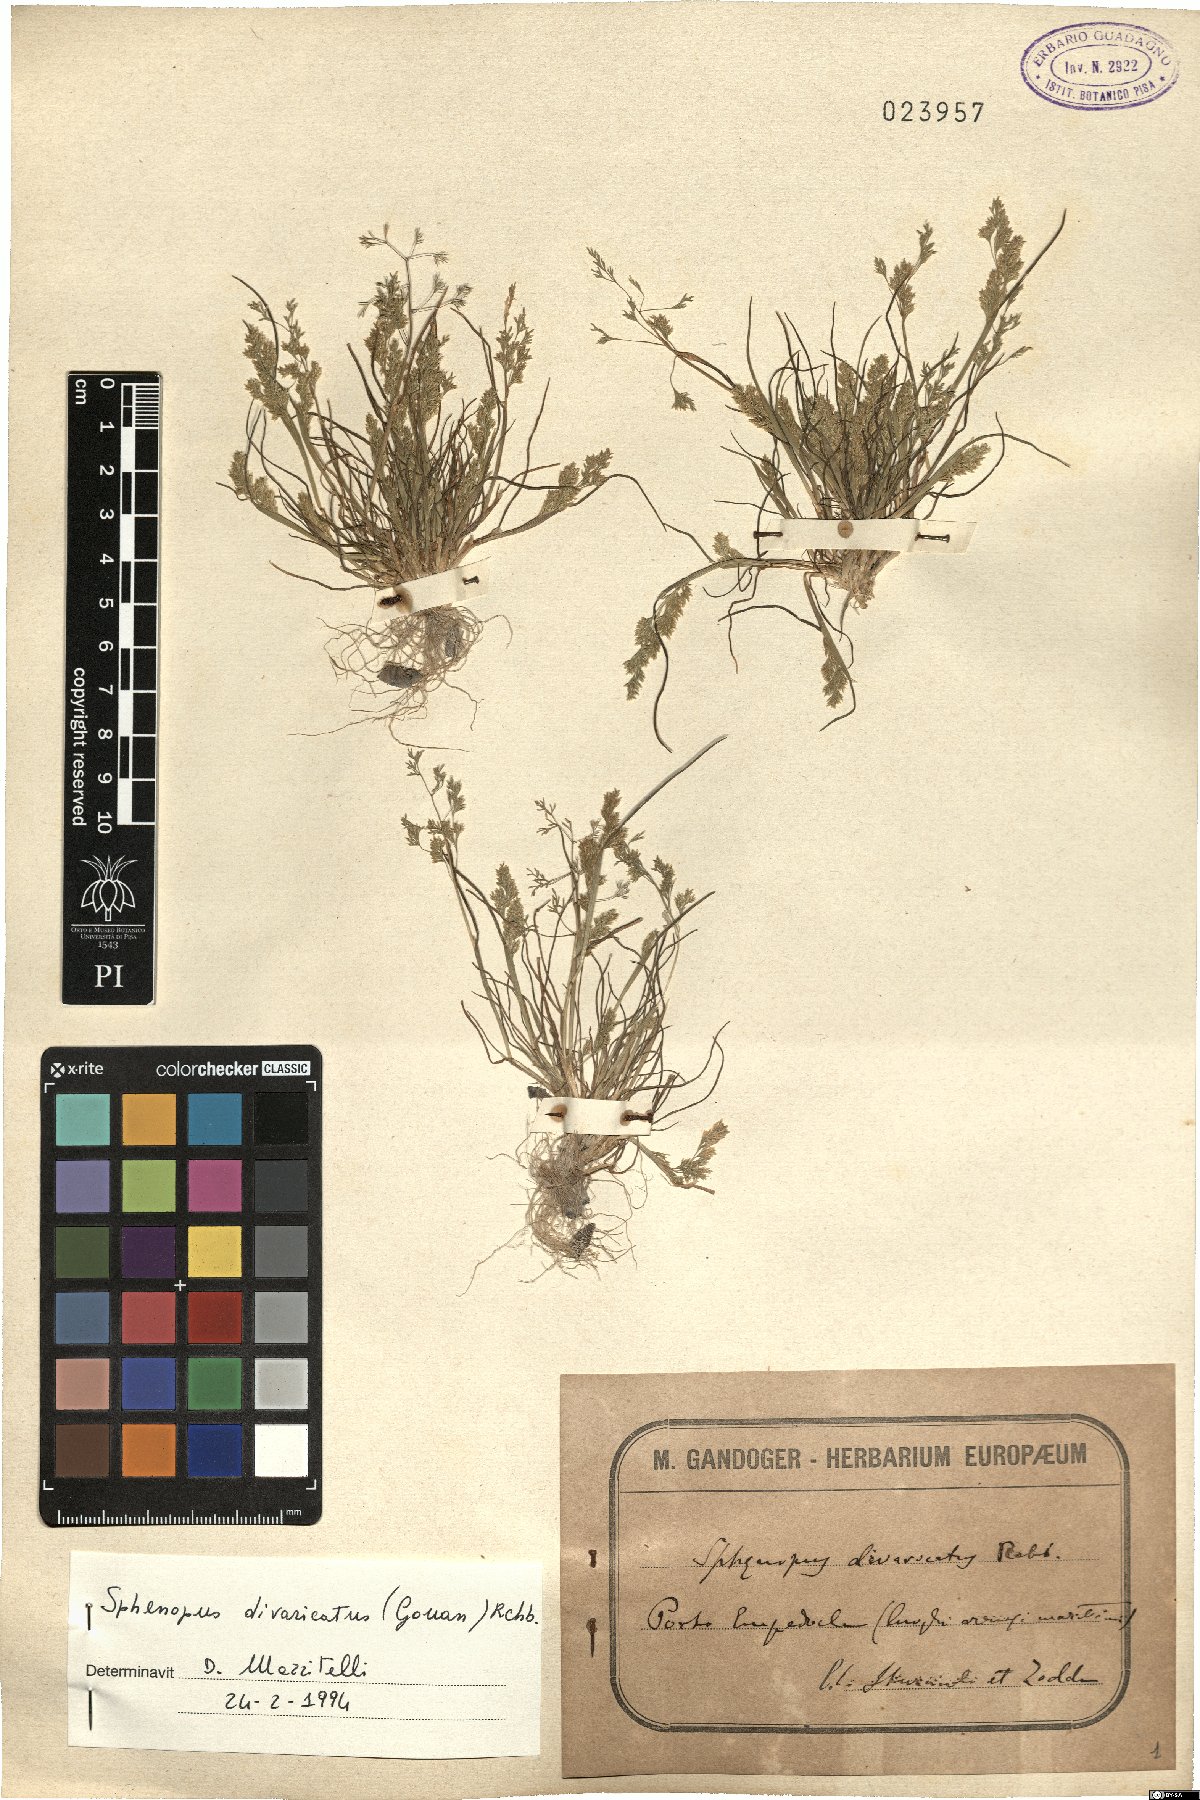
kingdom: Plantae
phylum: Tracheophyta
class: Liliopsida
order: Poales
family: Poaceae
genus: Sphenopus
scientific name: Sphenopus divaricatus
